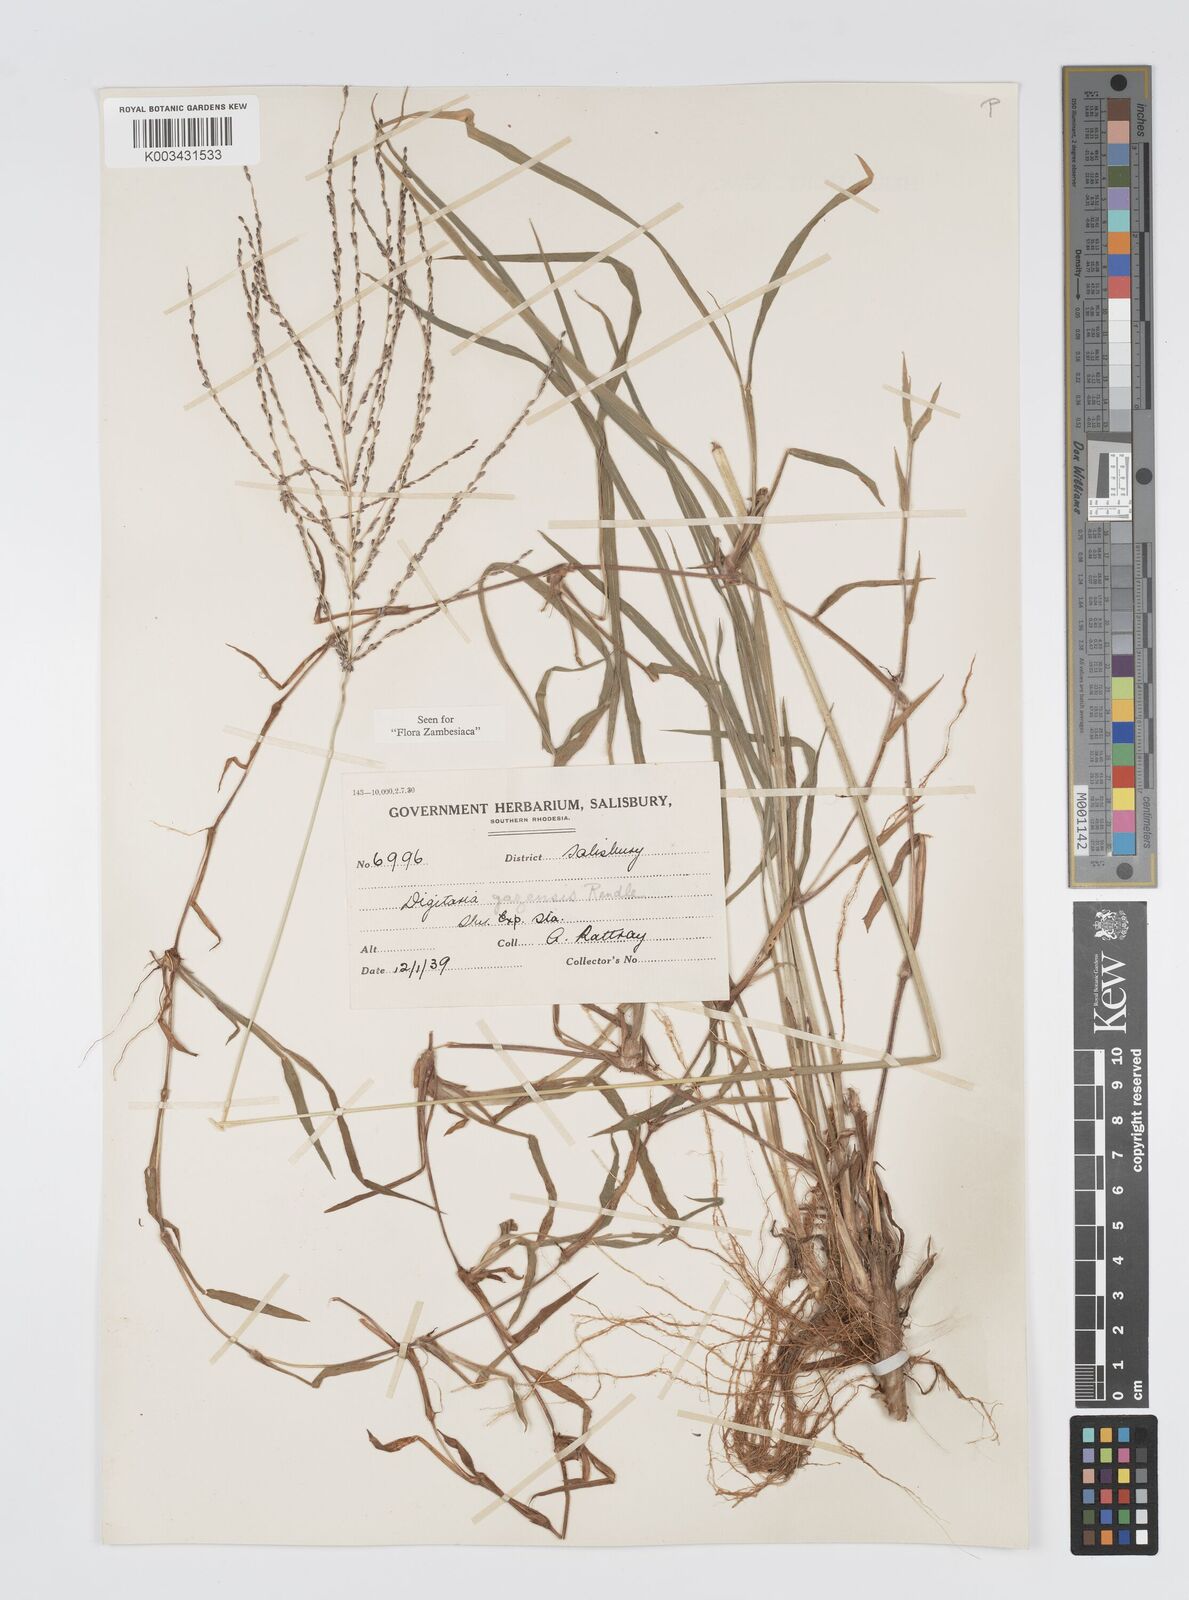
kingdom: Plantae
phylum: Tracheophyta
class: Liliopsida
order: Poales
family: Poaceae
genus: Digitaria
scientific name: Digitaria gazensis
